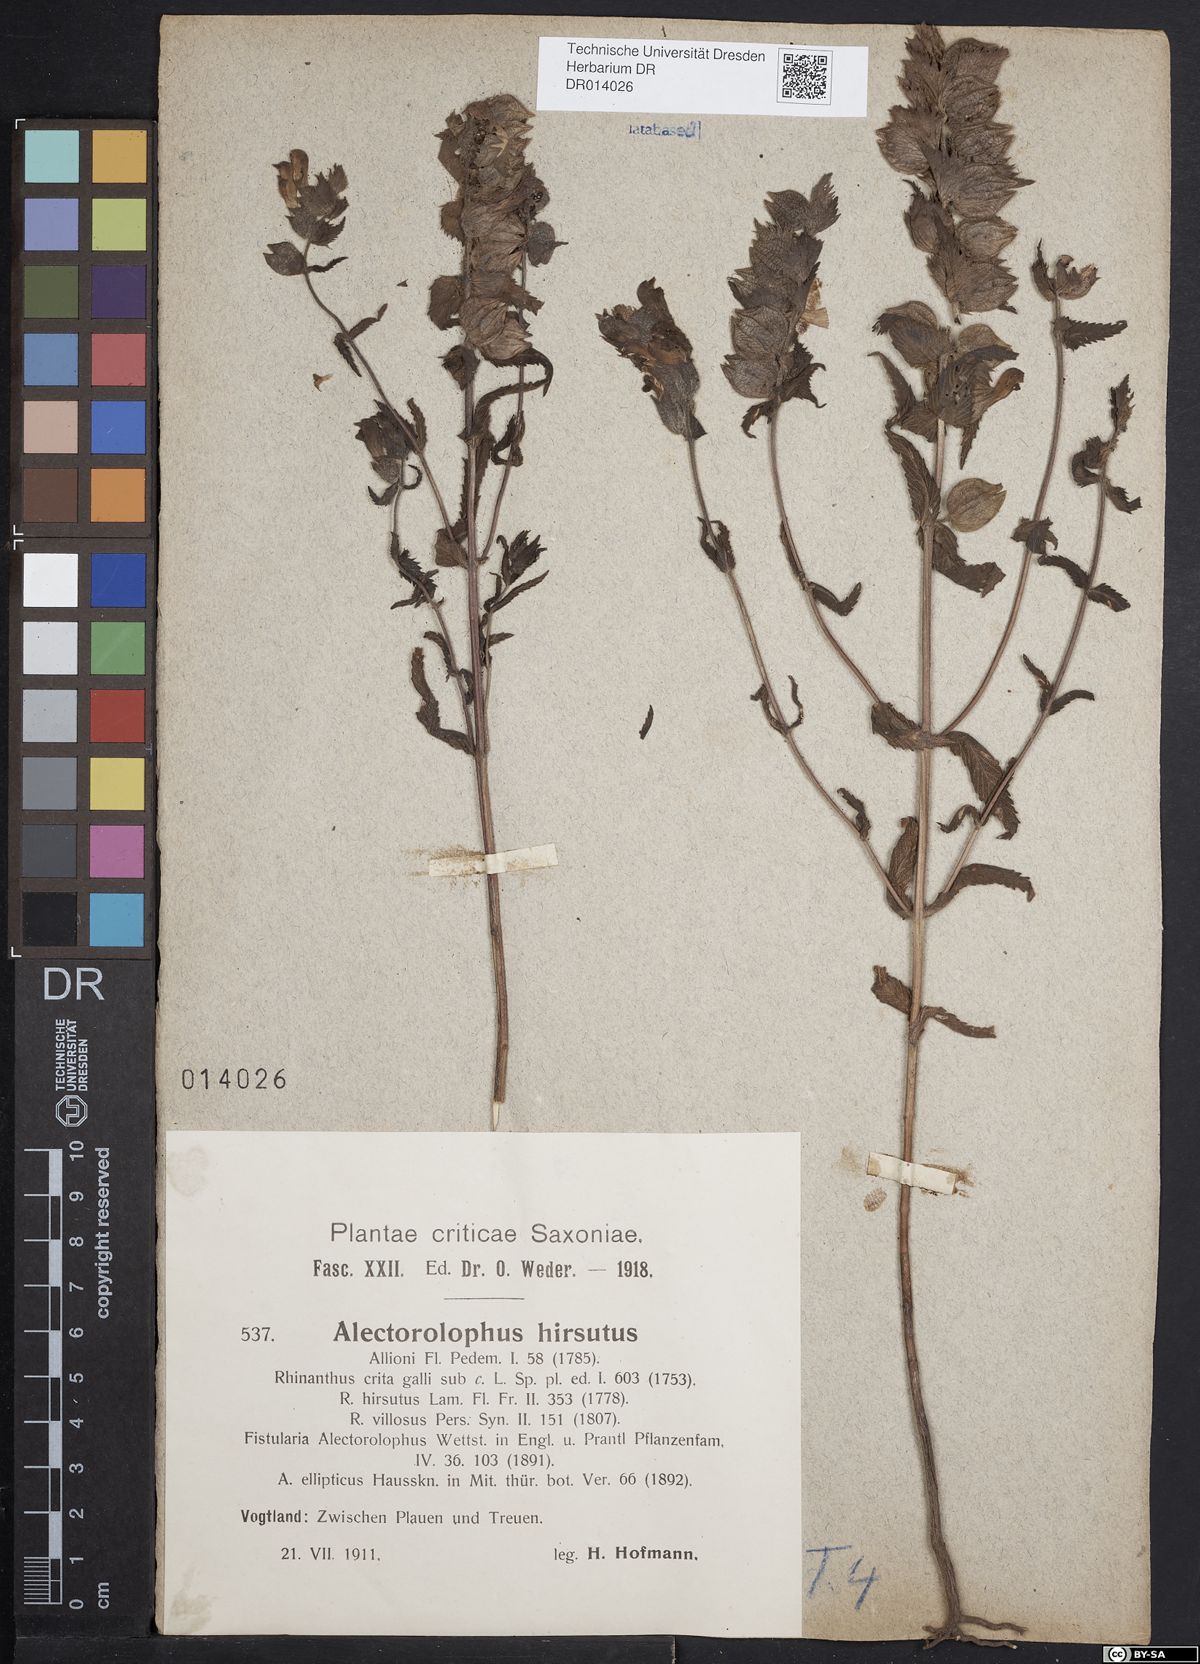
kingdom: Plantae
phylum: Tracheophyta
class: Magnoliopsida
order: Lamiales
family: Orobanchaceae
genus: Rhinanthus
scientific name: Rhinanthus alectorolophus
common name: Greater yellow-rattle
